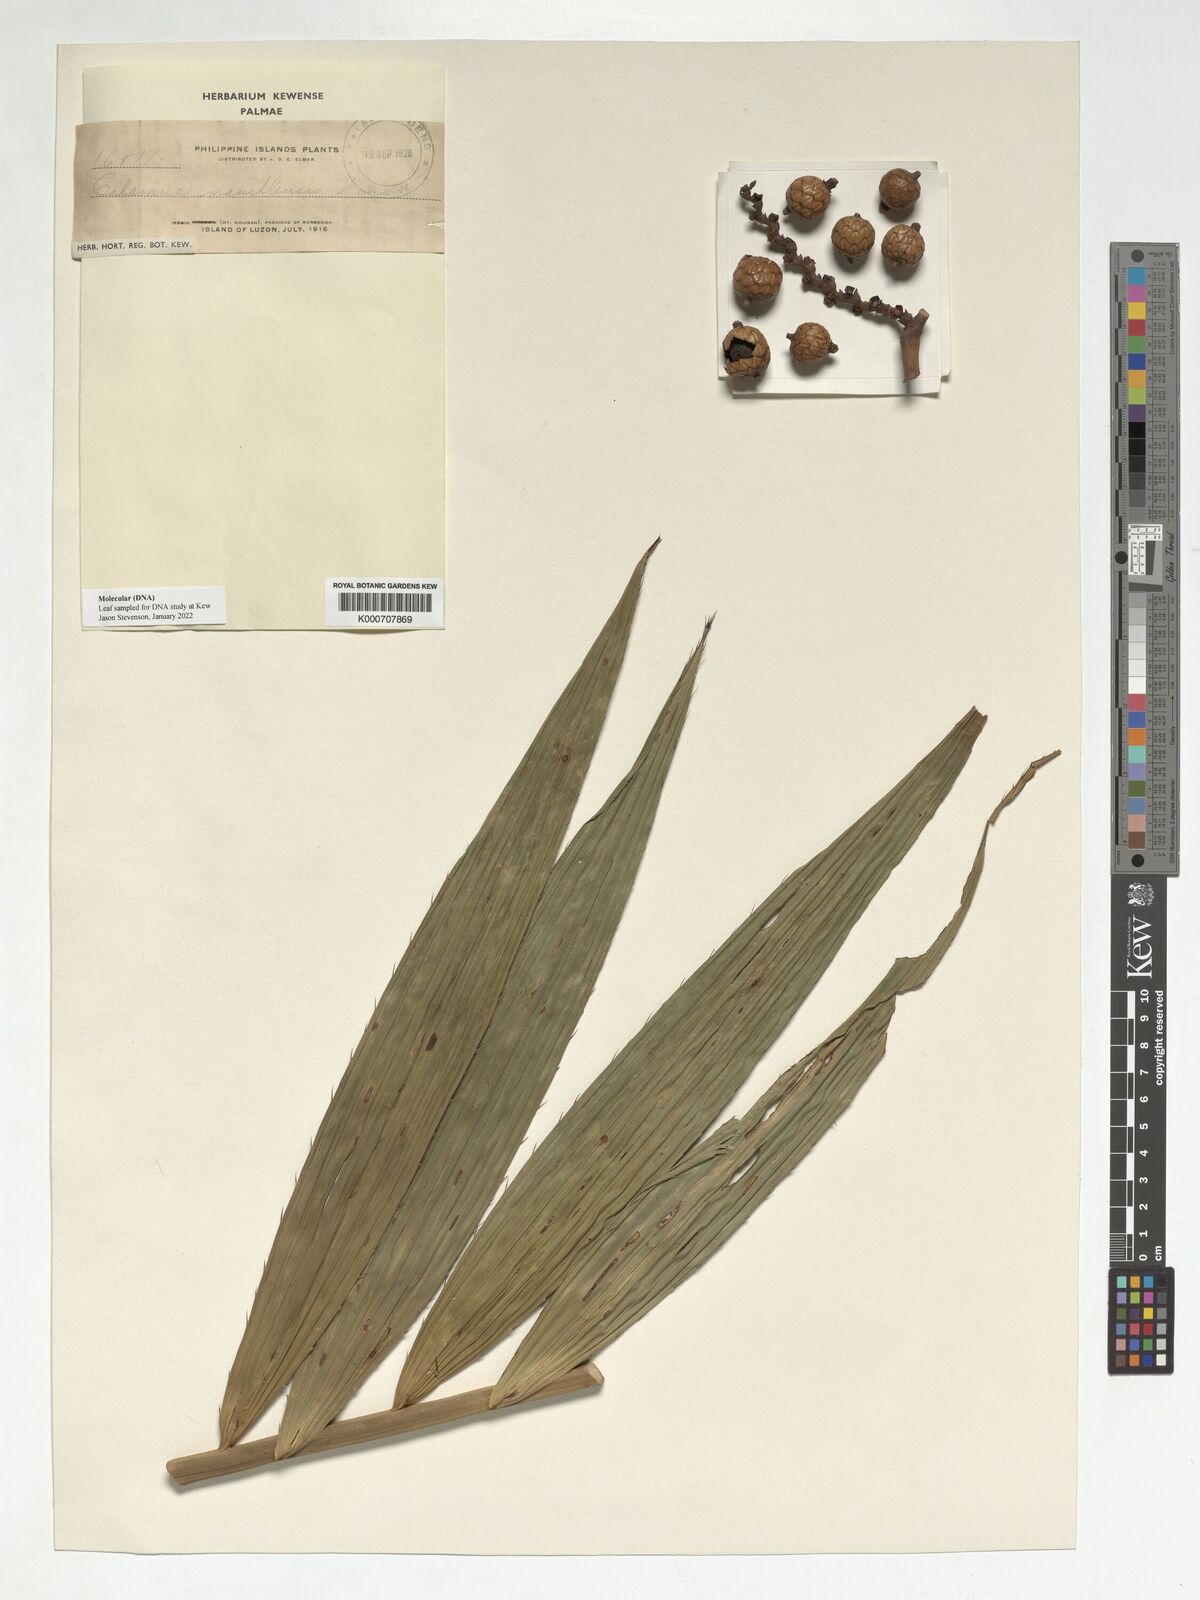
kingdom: Plantae
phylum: Tracheophyta
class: Liliopsida
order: Arecales
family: Arecaceae
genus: Calamus
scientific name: Calamus manillensis
